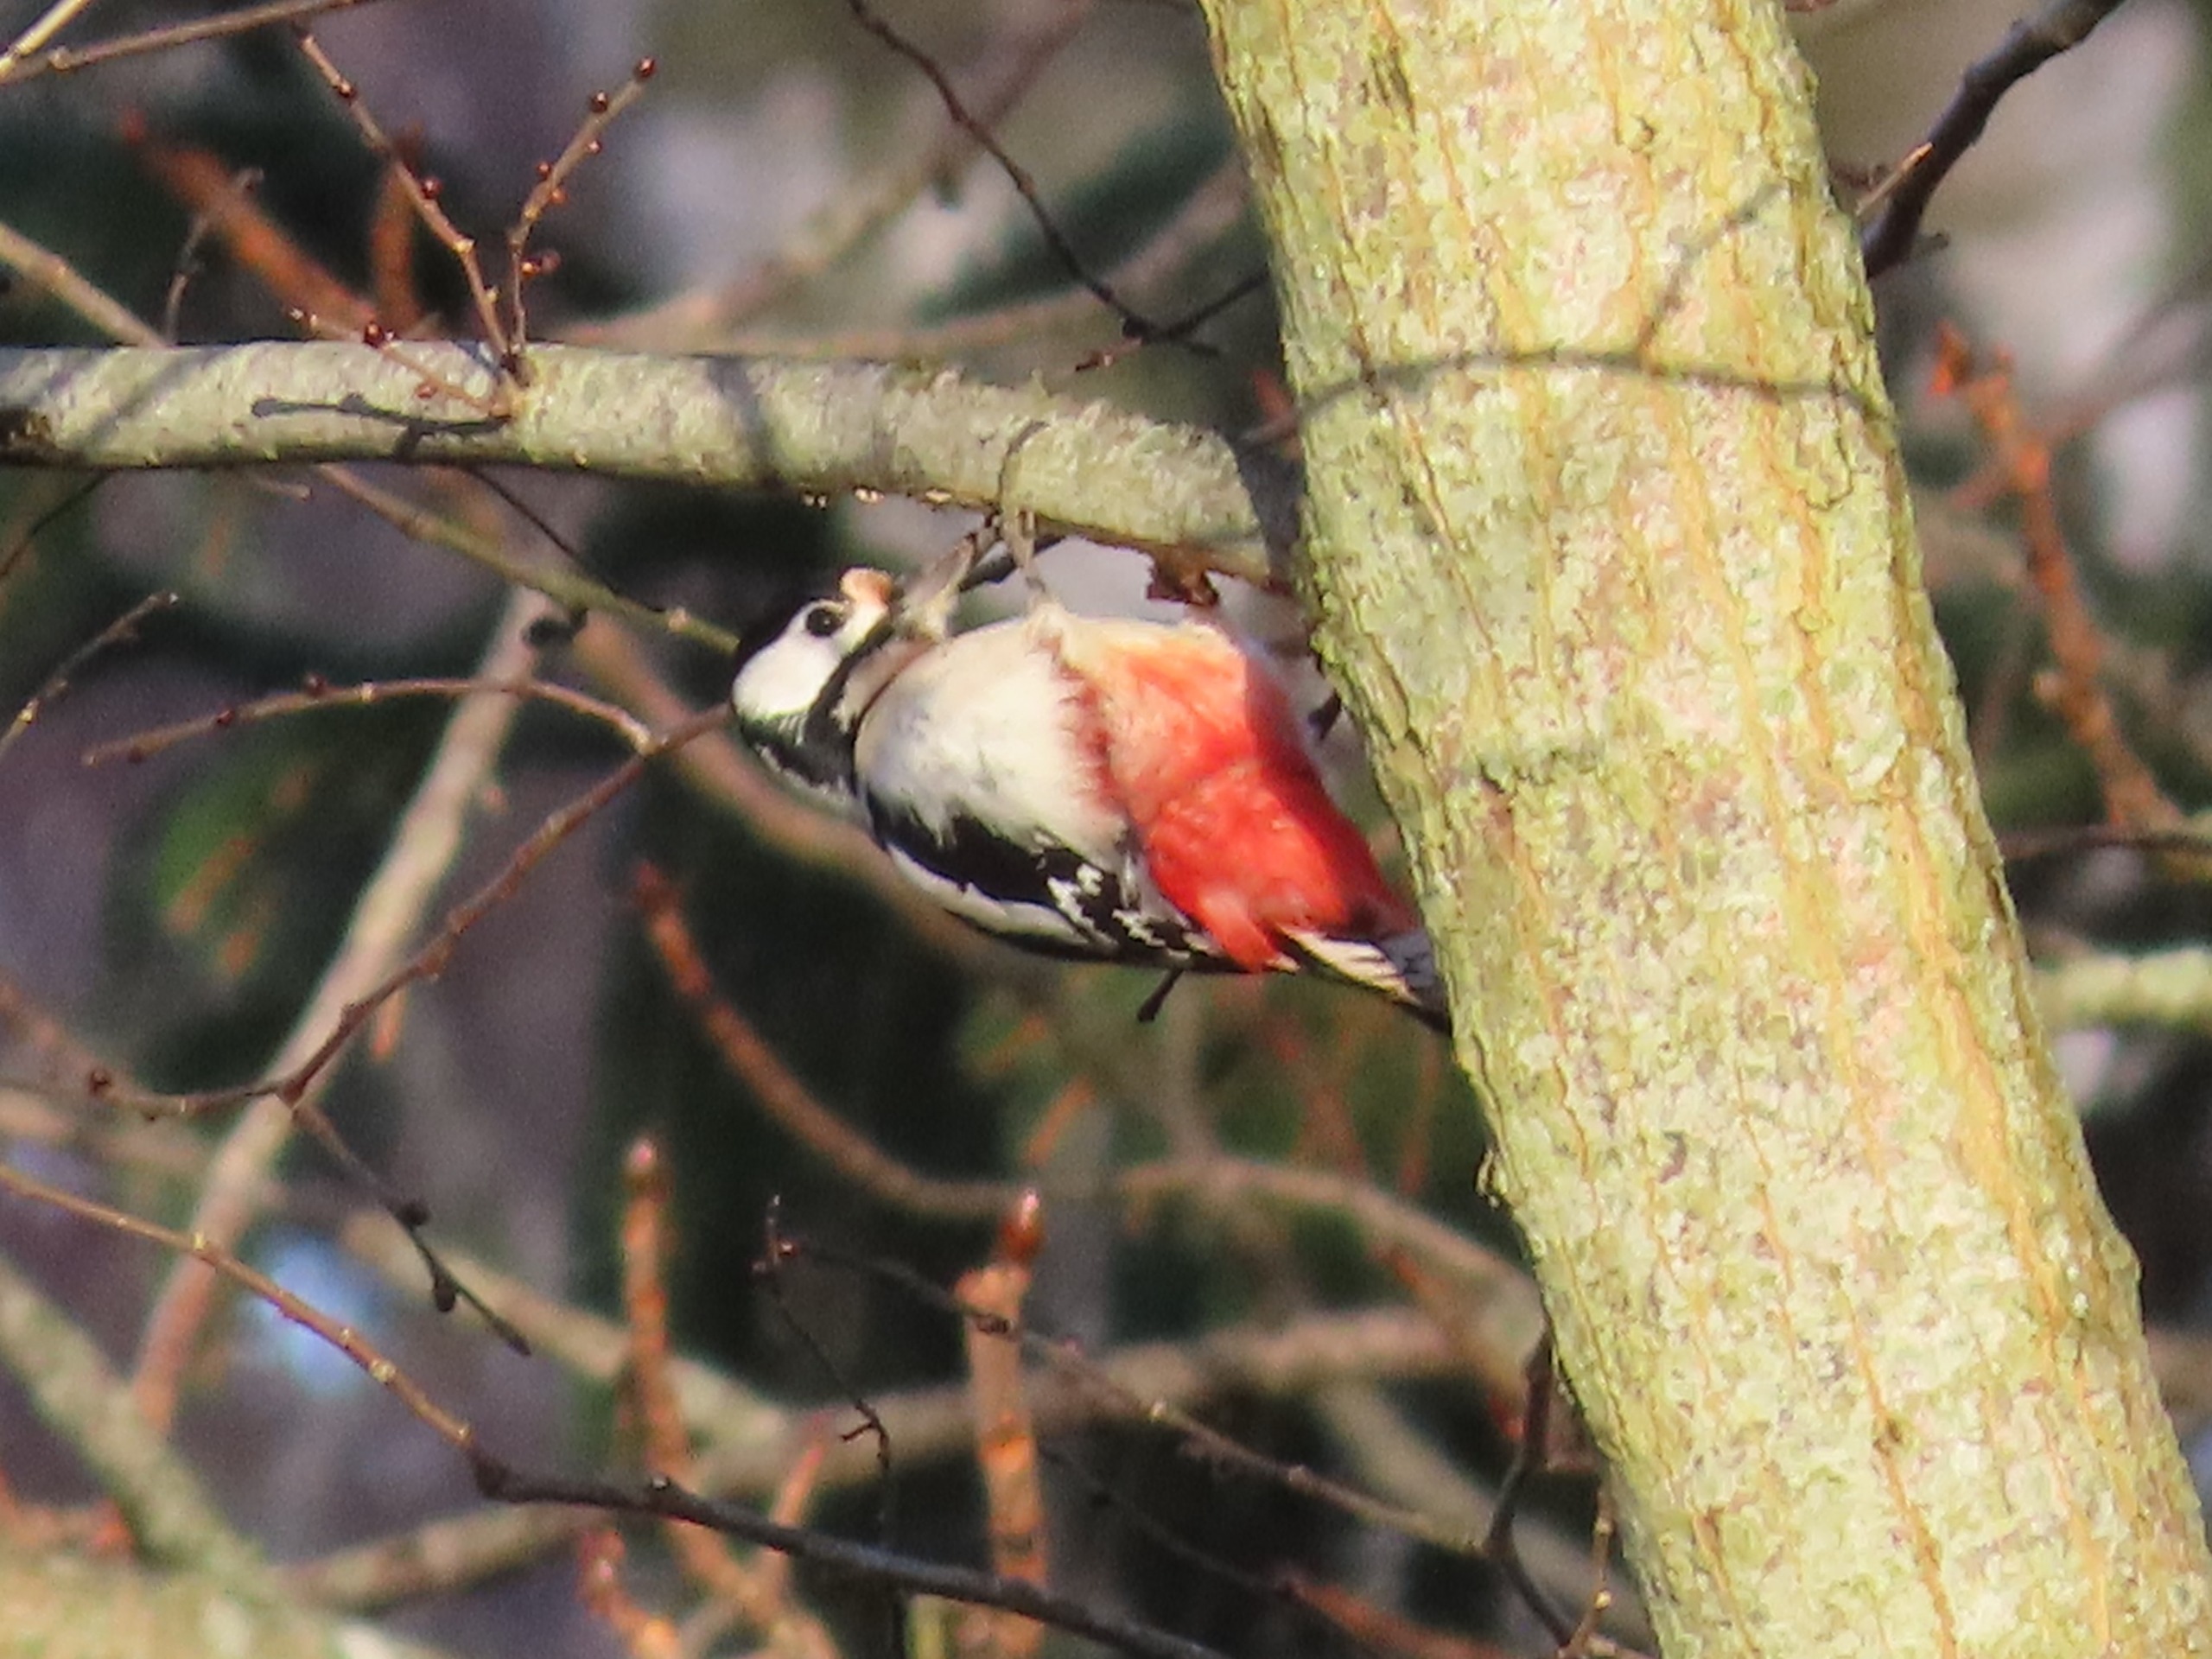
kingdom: Animalia
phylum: Chordata
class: Aves
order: Piciformes
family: Picidae
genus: Dendrocopos
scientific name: Dendrocopos major
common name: Stor flagspætte
